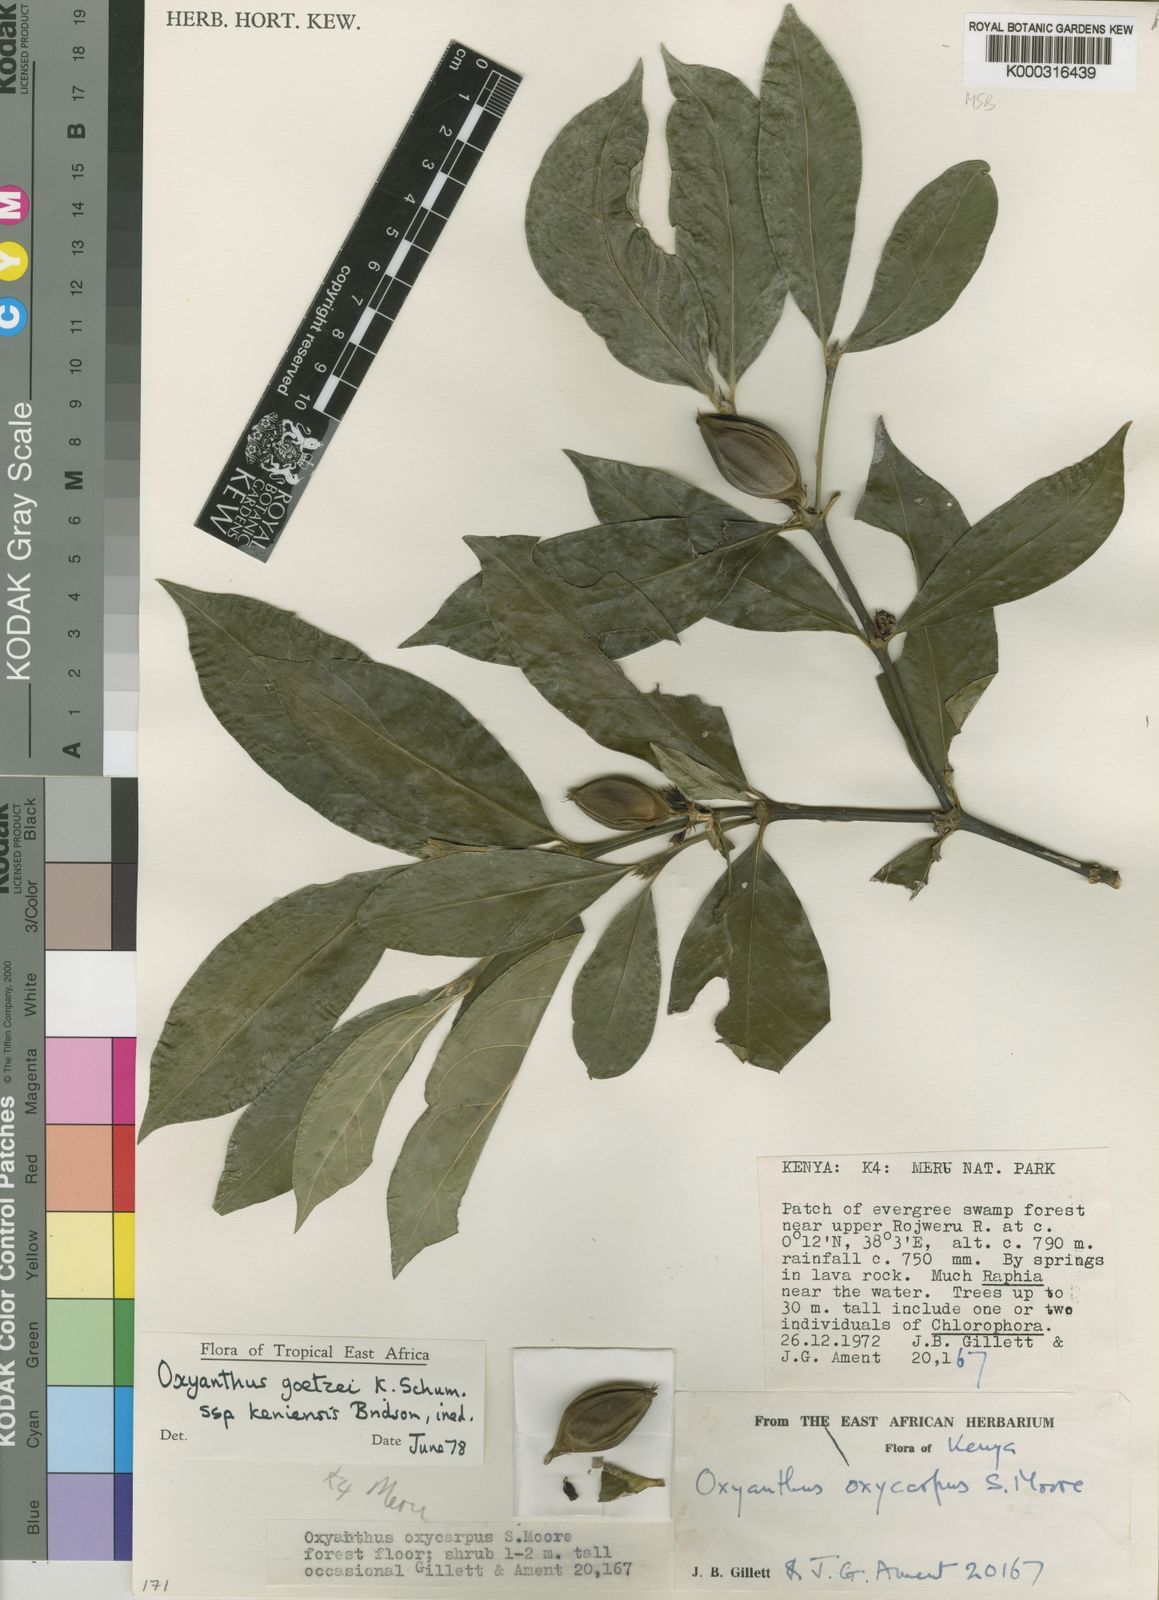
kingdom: Plantae
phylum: Tracheophyta
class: Magnoliopsida
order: Gentianales
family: Rubiaceae
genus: Oxyanthus
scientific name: Oxyanthus goetzei
